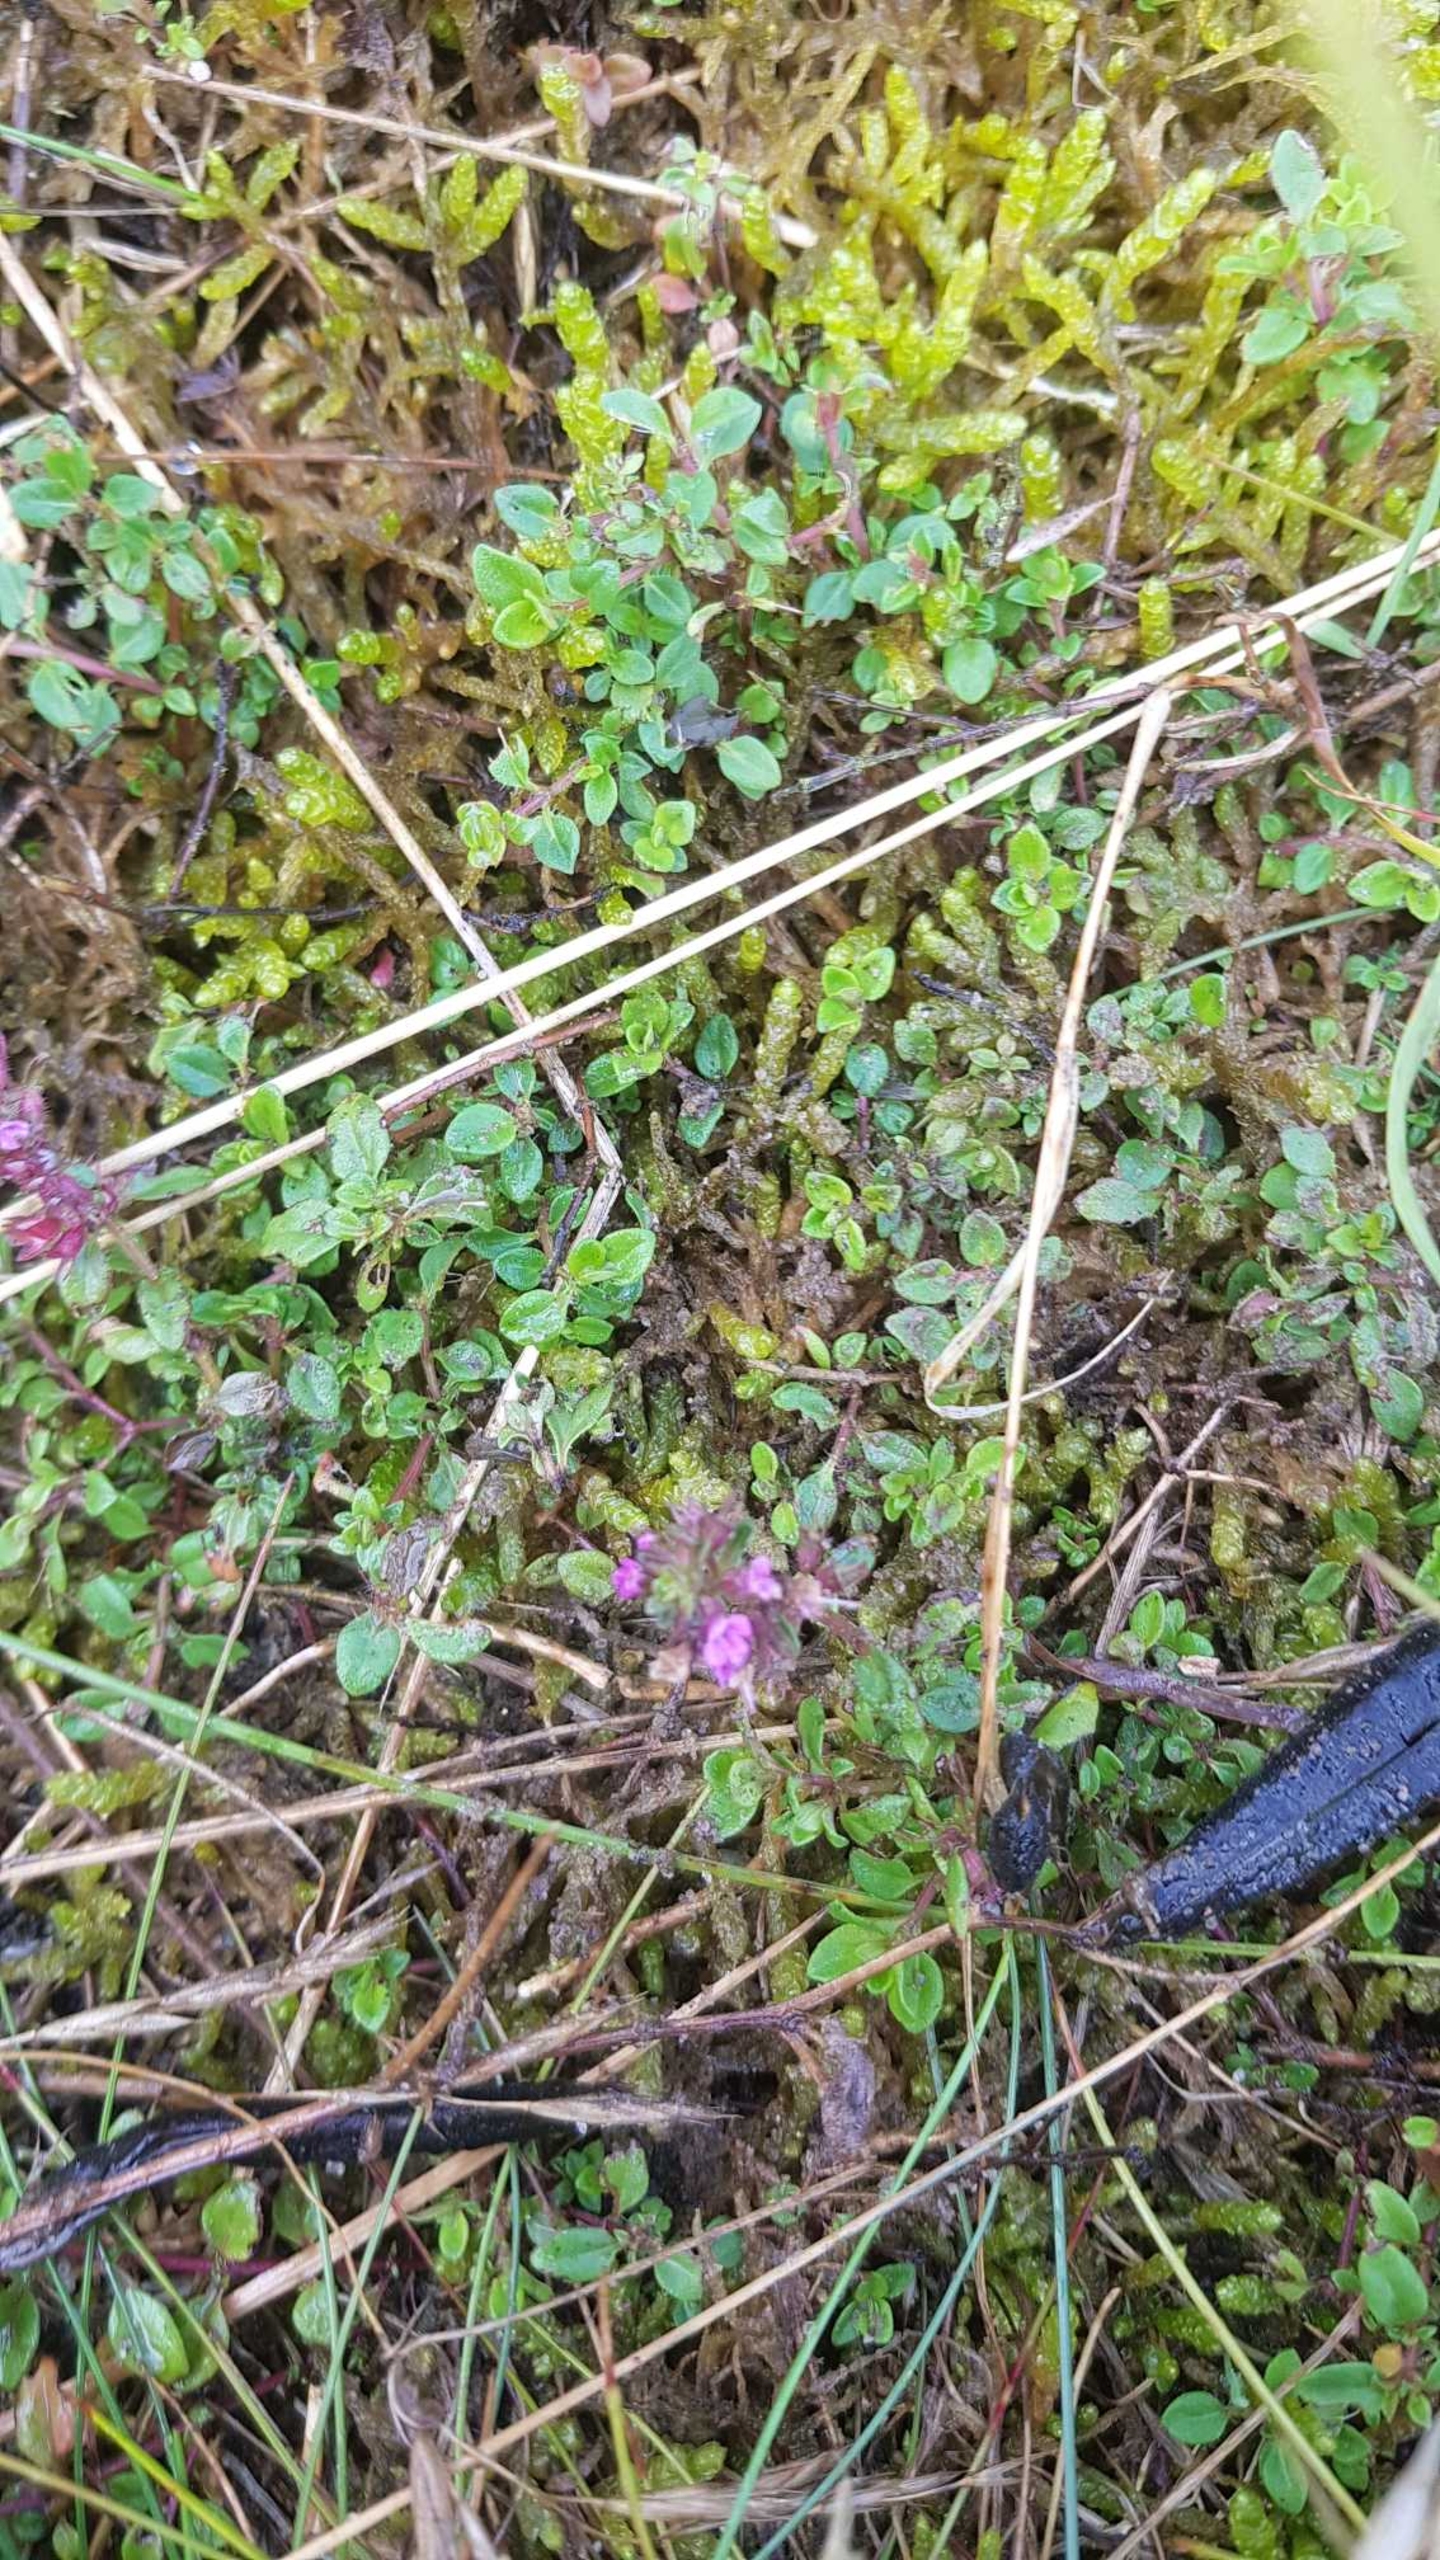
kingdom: Plantae
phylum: Tracheophyta
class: Magnoliopsida
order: Lamiales
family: Lamiaceae
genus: Thymus
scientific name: Thymus pulegioides
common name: Bredbladet timian
